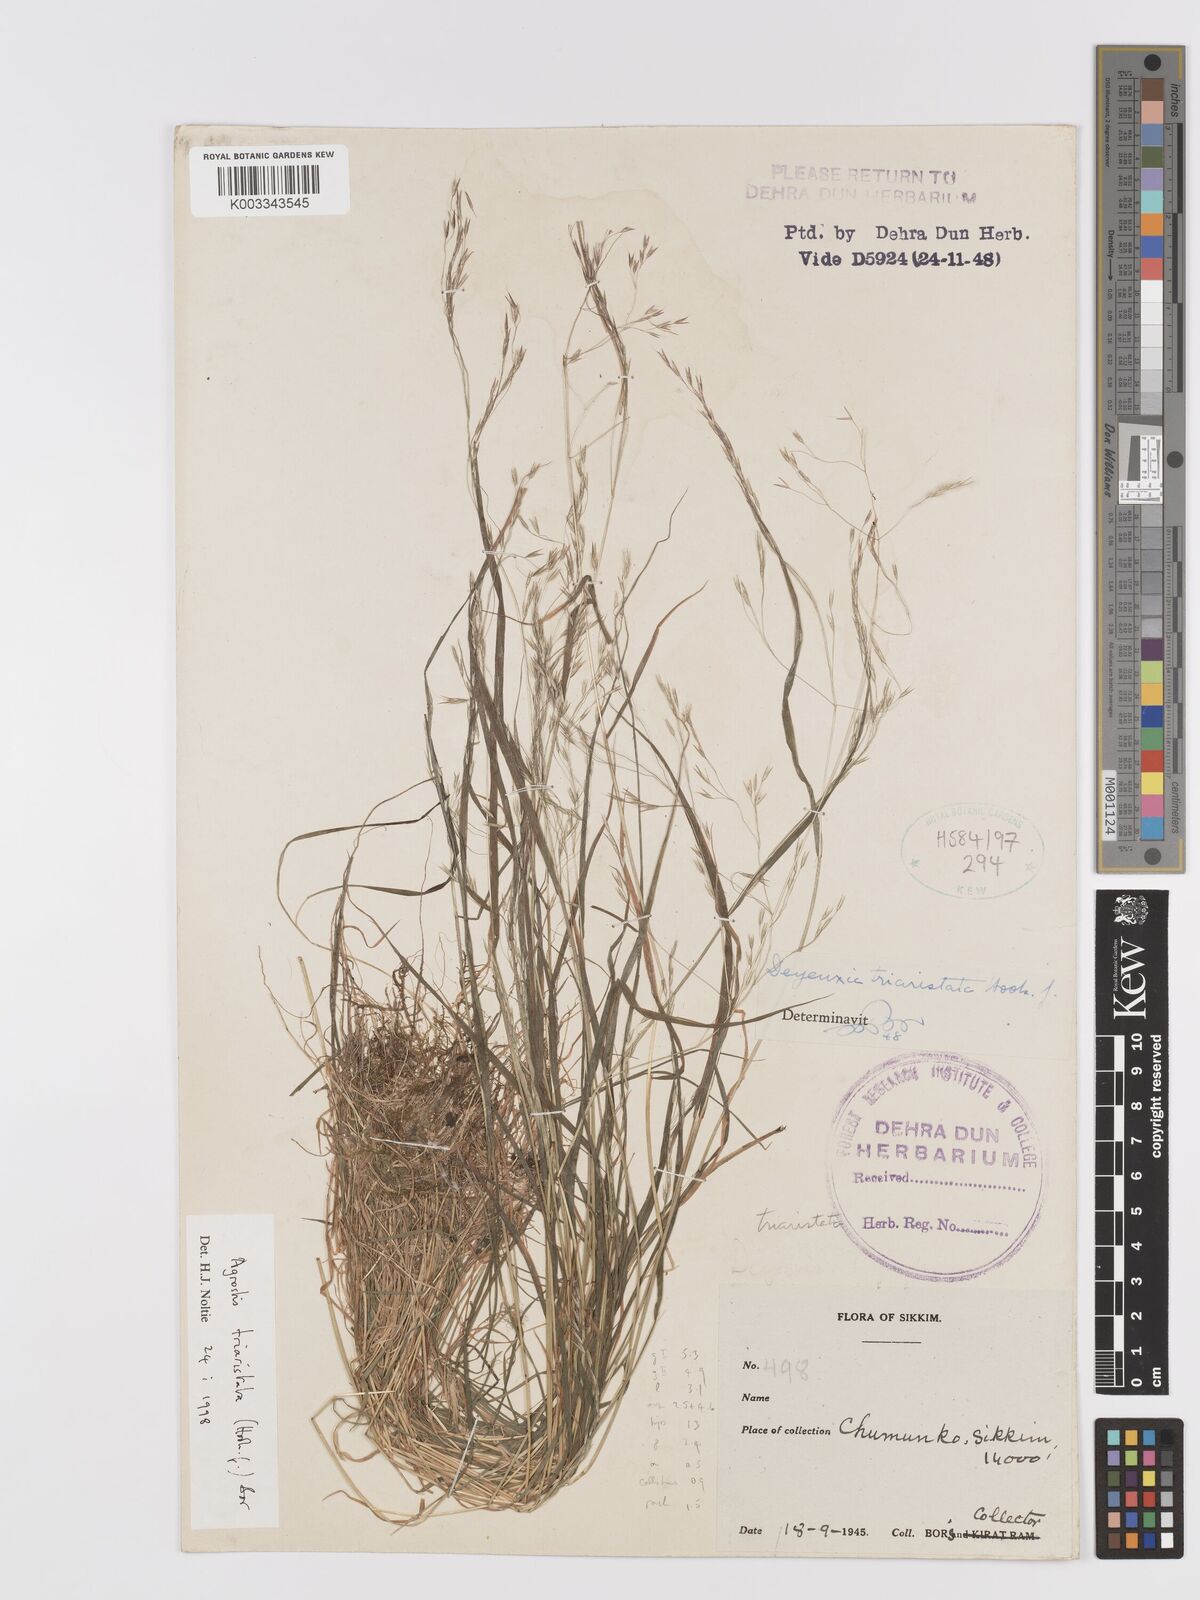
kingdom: Plantae
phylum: Tracheophyta
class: Liliopsida
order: Poales
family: Poaceae
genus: Agrostis
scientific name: Agrostis
